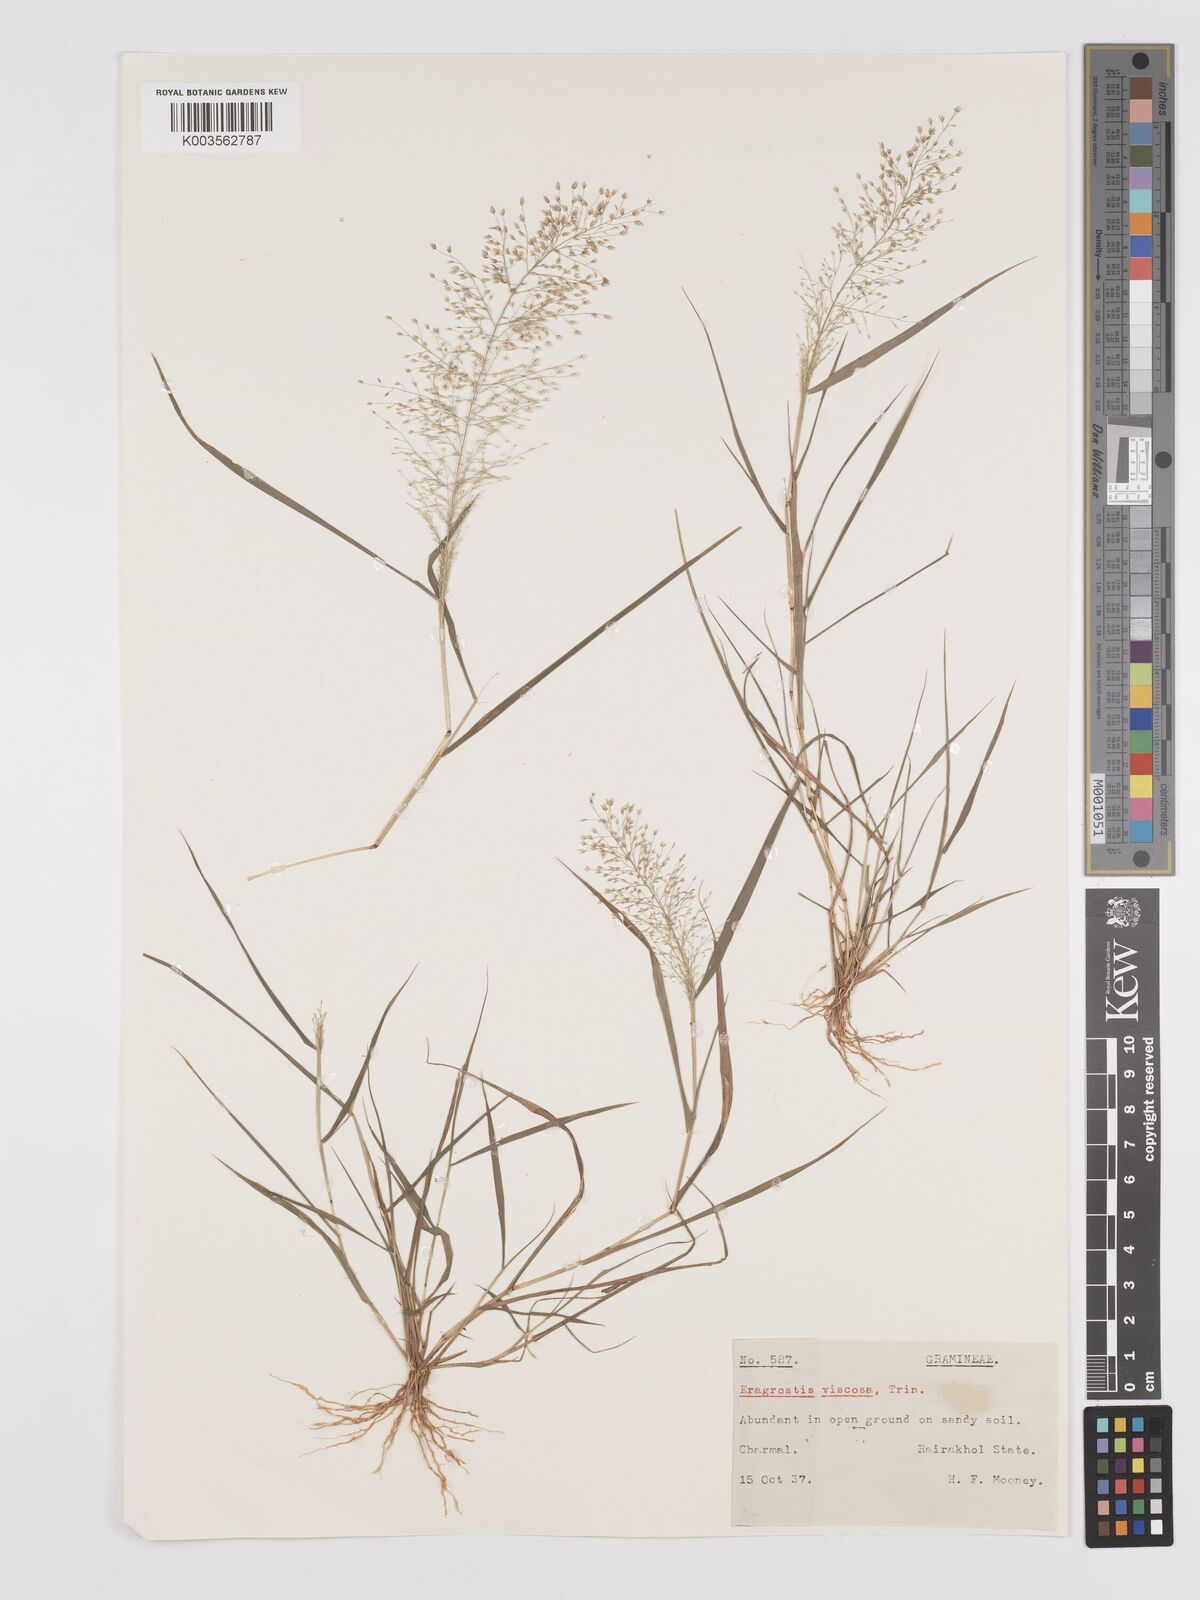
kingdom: Plantae
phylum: Tracheophyta
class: Liliopsida
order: Poales
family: Poaceae
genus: Eragrostis
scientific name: Eragrostis viscosa
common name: Sticky love grass
